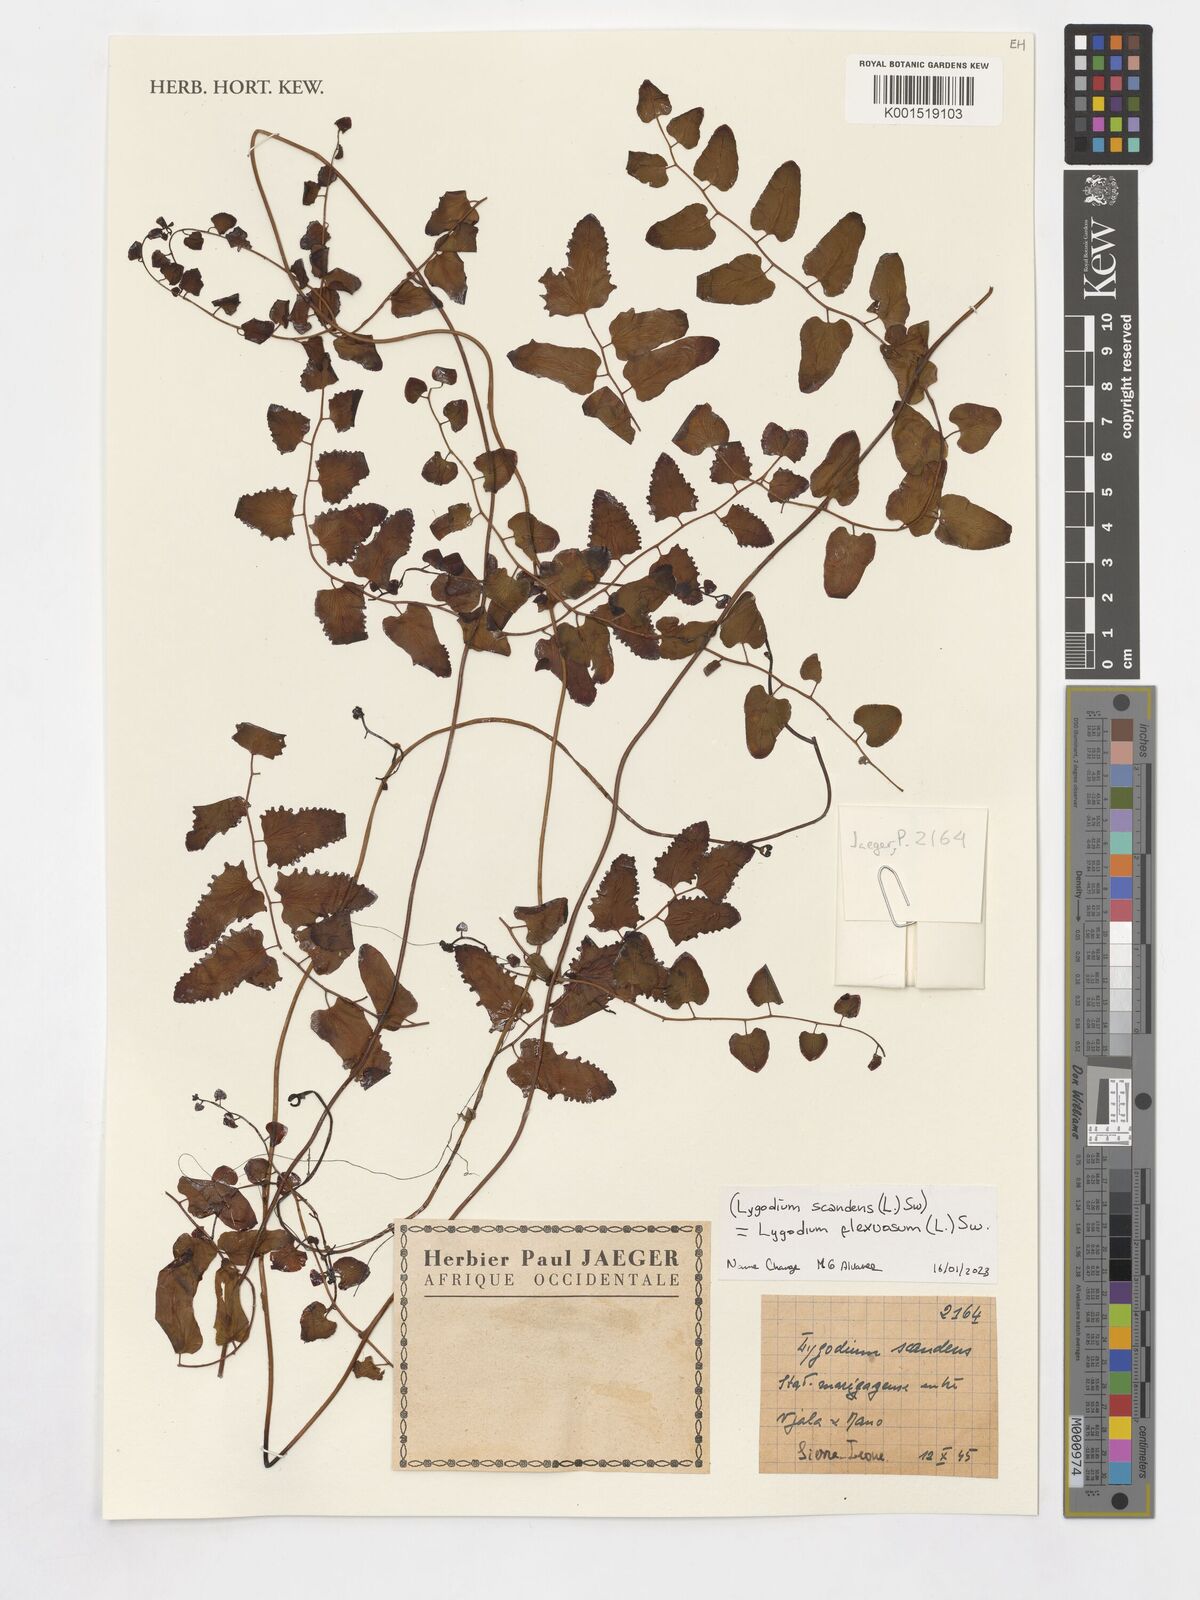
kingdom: Plantae
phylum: Tracheophyta
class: Polypodiopsida
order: Schizaeales
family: Lygodiaceae
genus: Lygodium
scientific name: Lygodium flexuosum
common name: Maidenhair creeper
